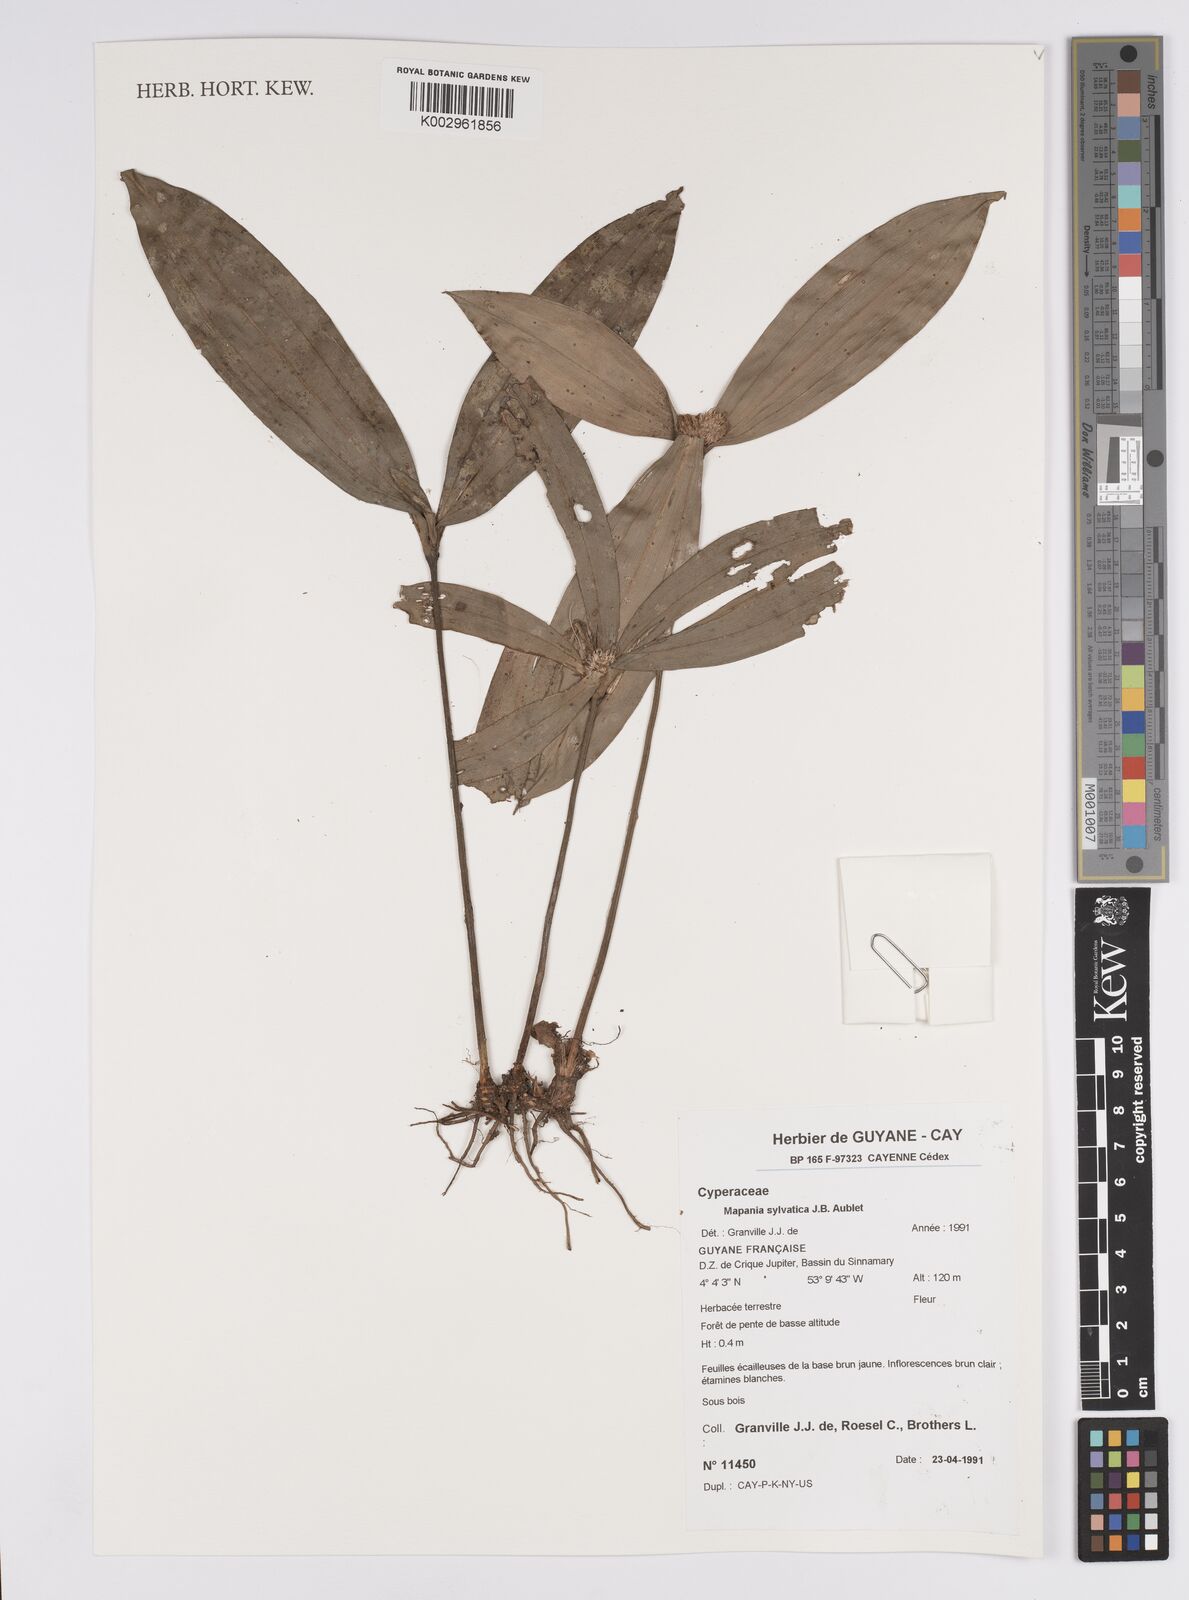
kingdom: Plantae
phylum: Tracheophyta
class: Liliopsida
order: Poales
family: Cyperaceae
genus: Mapania
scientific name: Mapania sylvatica
